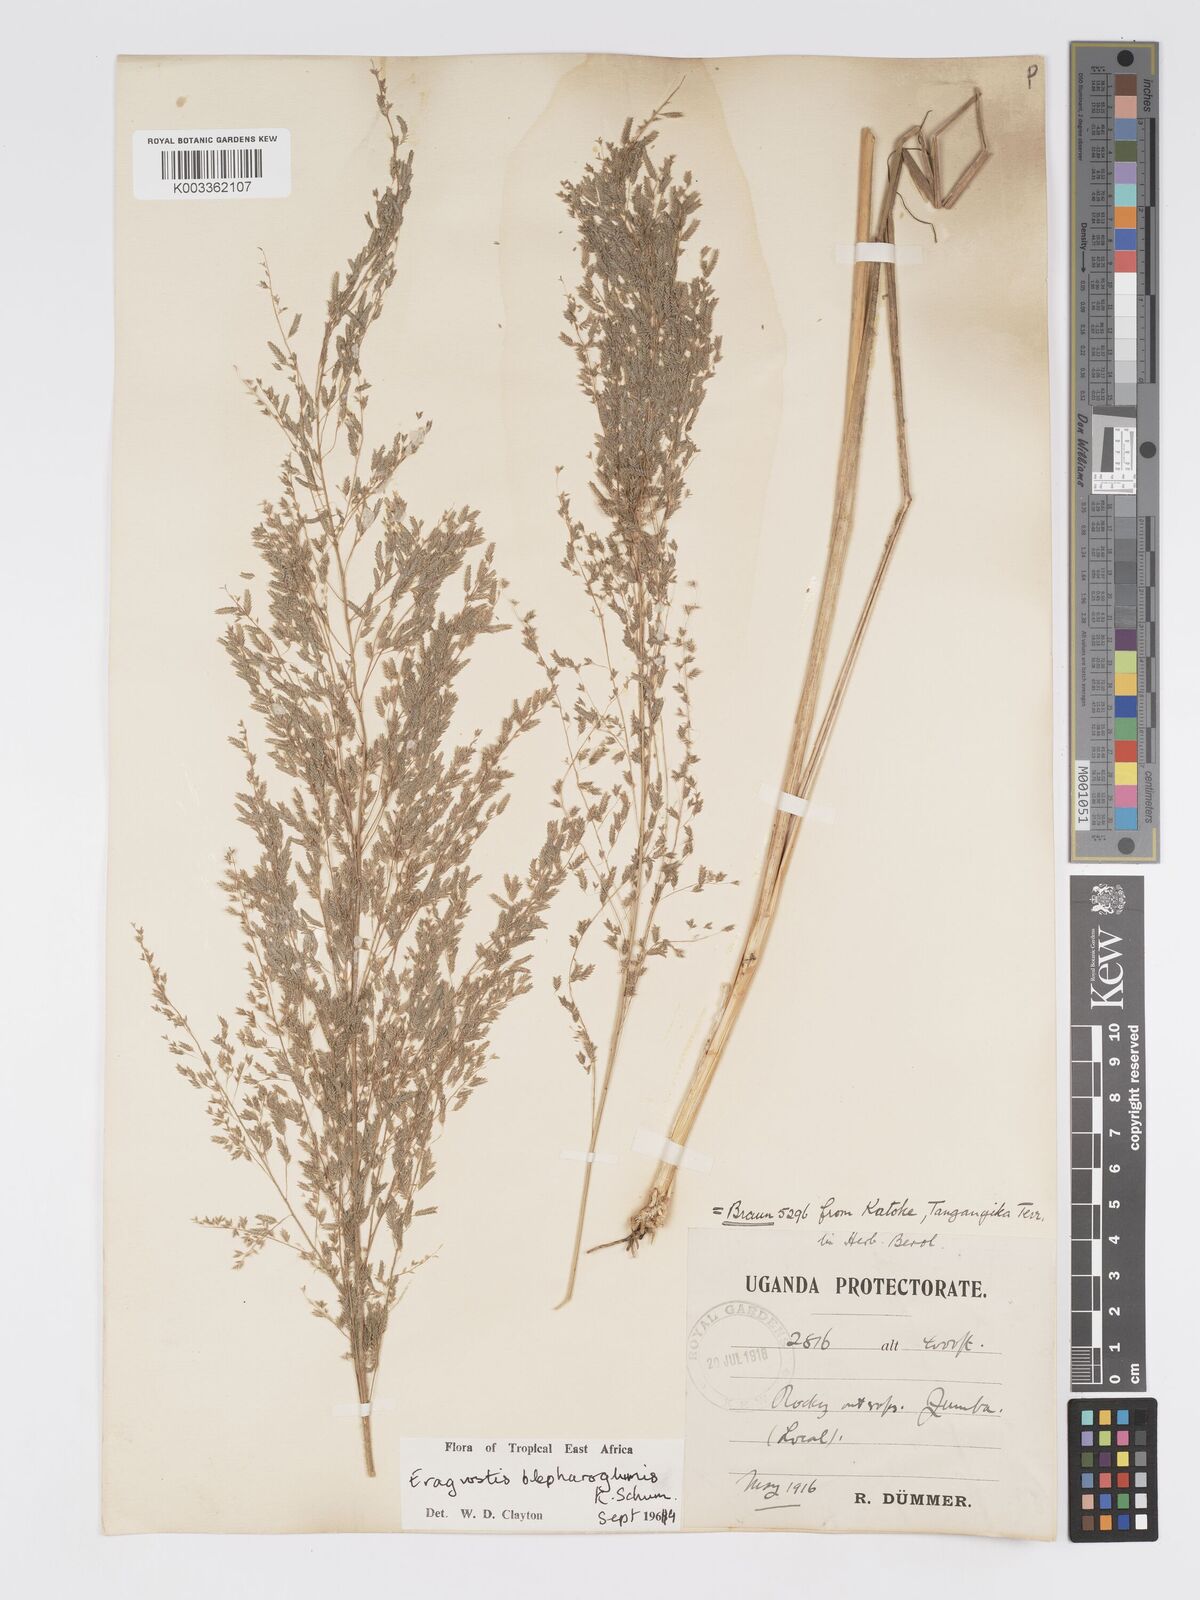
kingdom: Plantae
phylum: Tracheophyta
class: Liliopsida
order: Poales
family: Poaceae
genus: Eragrostis
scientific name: Eragrostis olivacea
